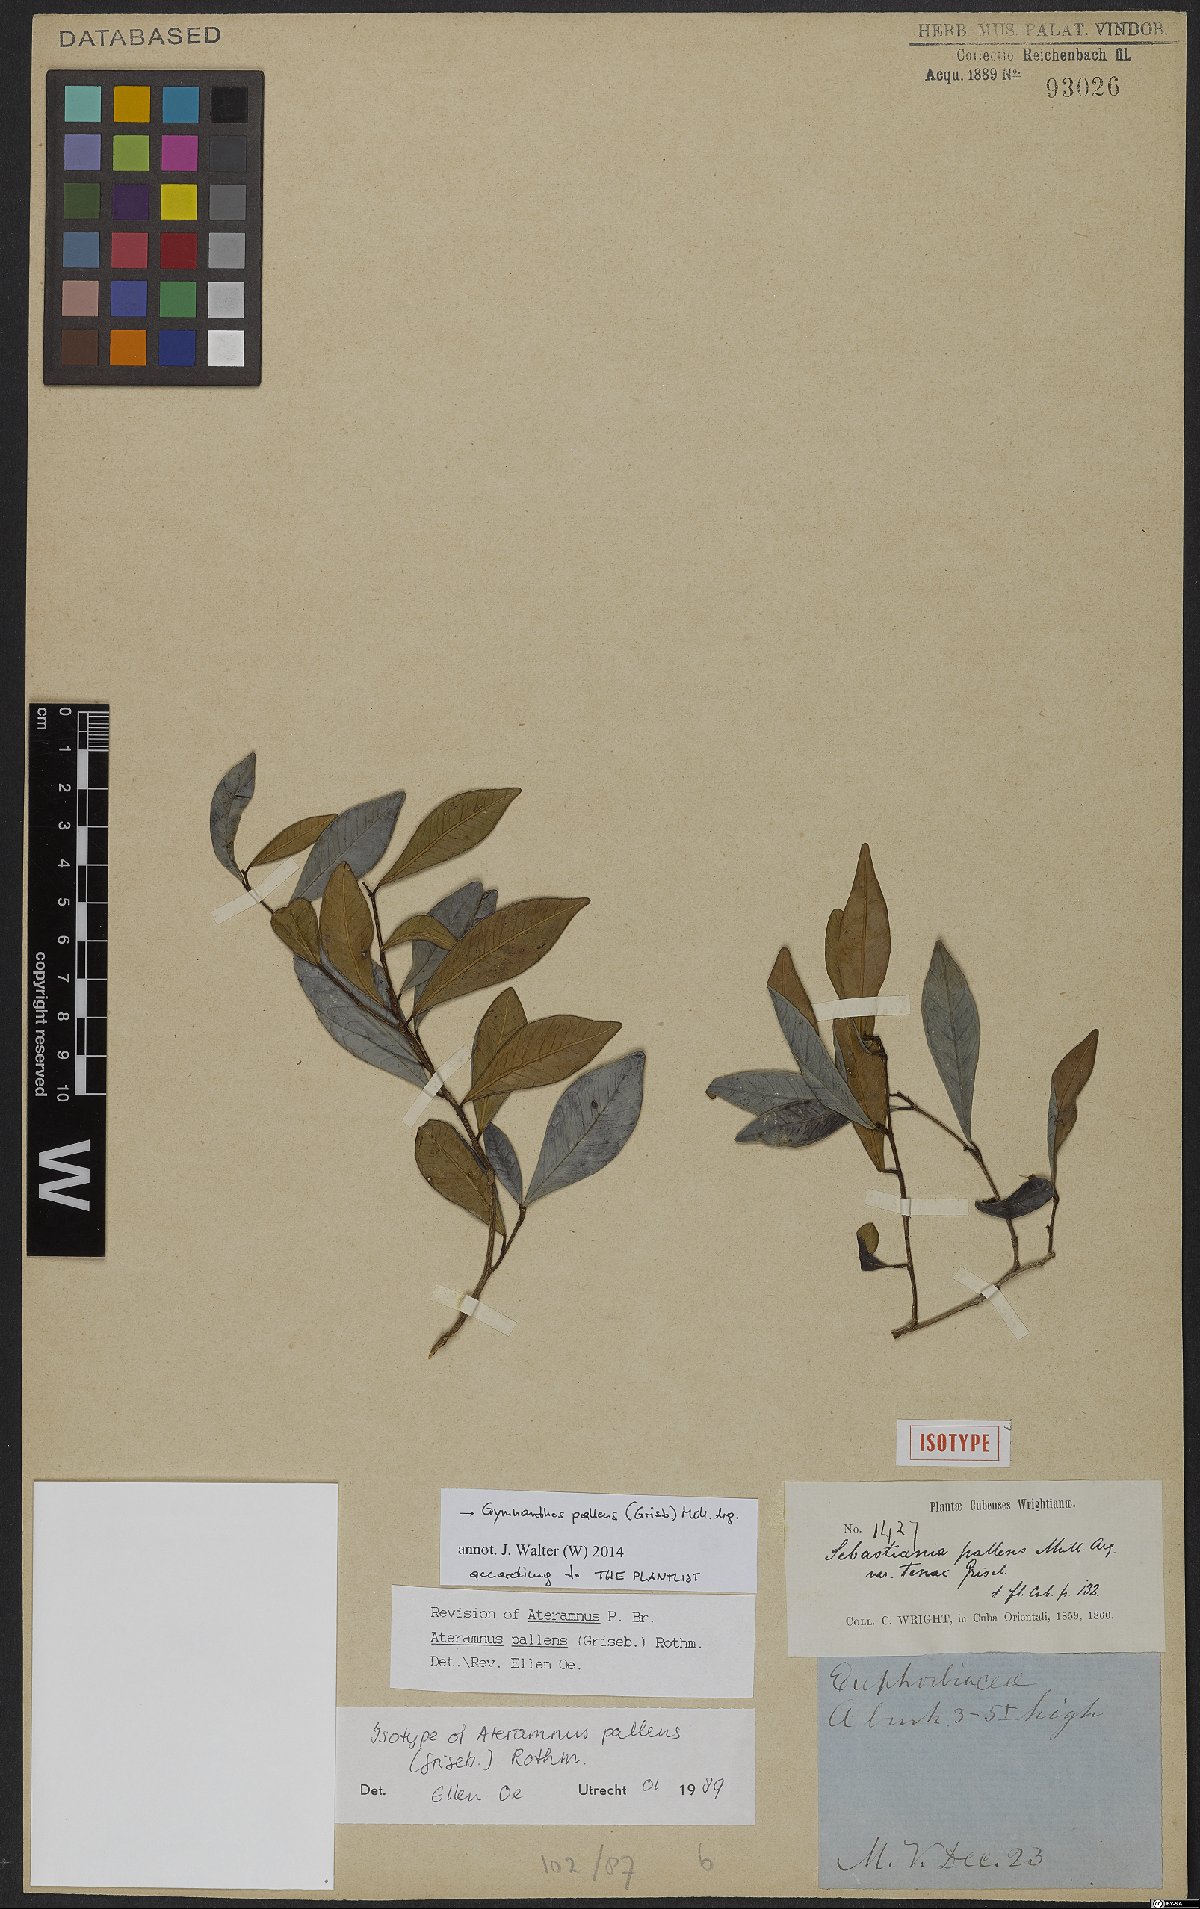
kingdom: Plantae
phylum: Tracheophyta
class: Magnoliopsida
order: Malpighiales
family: Euphorbiaceae
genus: Gymnanthes
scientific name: Gymnanthes pallens
